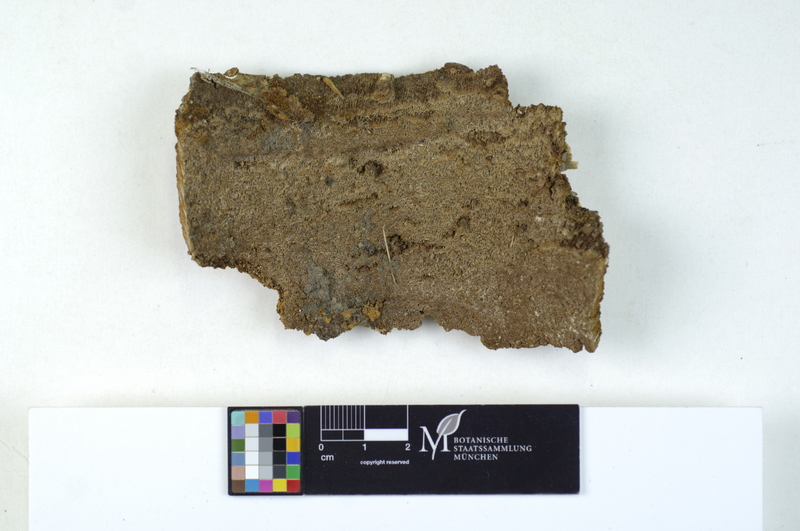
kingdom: Plantae
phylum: Tracheophyta
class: Magnoliopsida
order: Lamiales
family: Oleaceae
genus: Fraxinus
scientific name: Fraxinus
